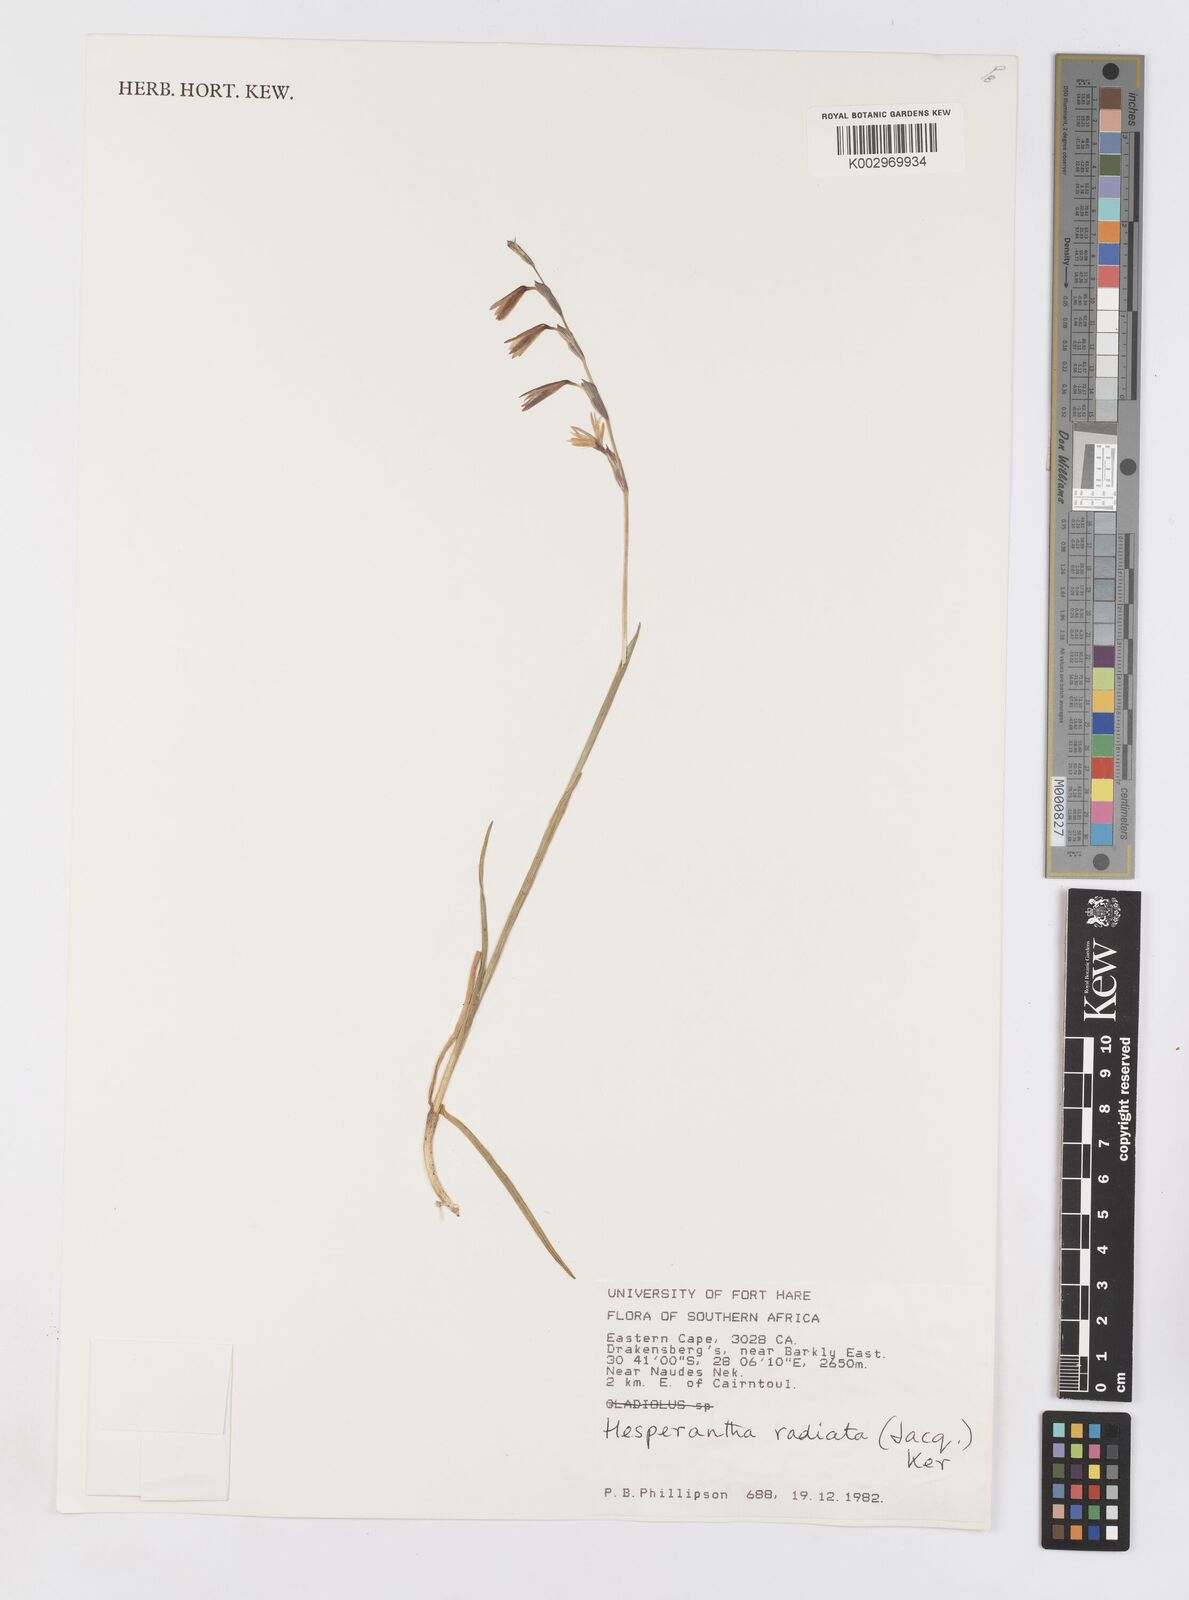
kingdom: Plantae
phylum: Tracheophyta
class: Liliopsida
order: Asparagales
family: Iridaceae
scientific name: Iridaceae
